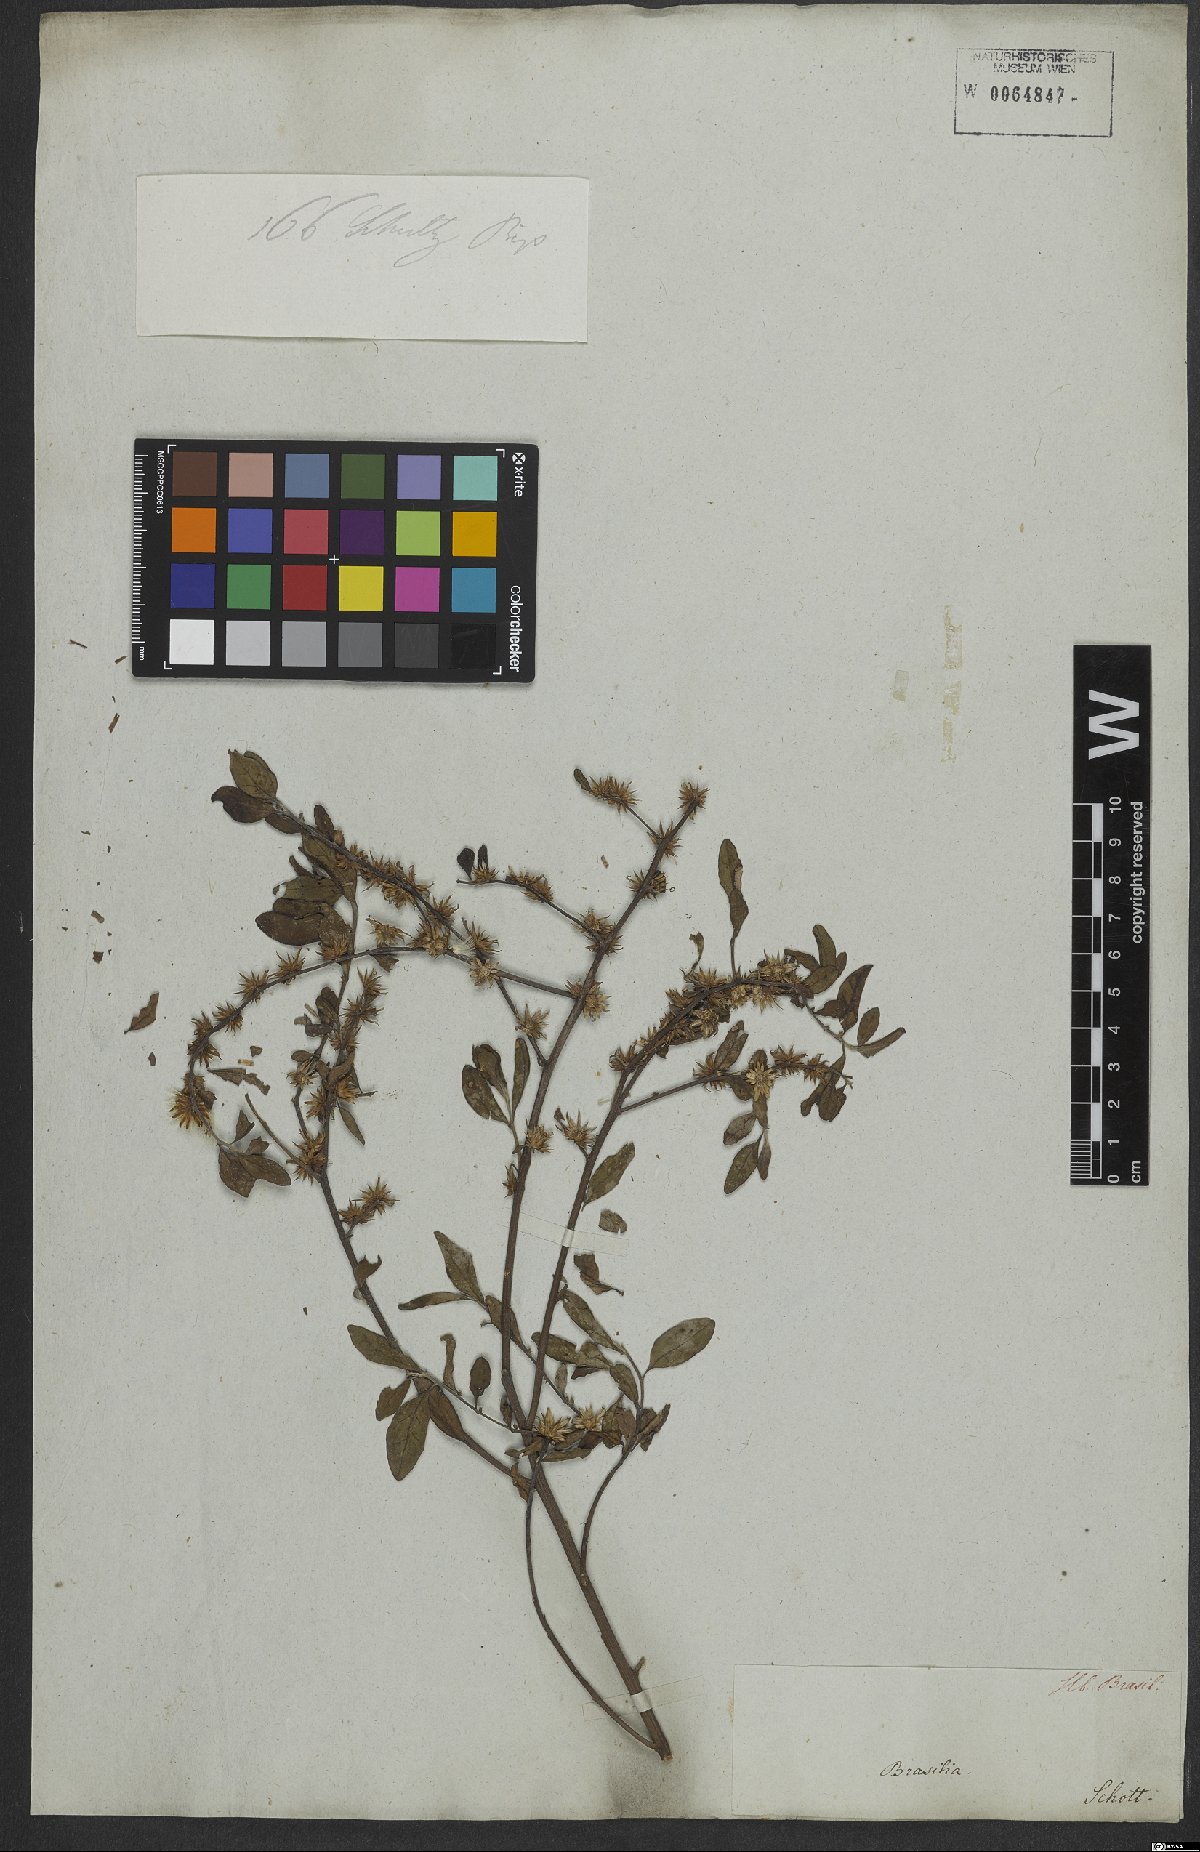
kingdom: Plantae
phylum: Tracheophyta
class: Magnoliopsida
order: Asterales
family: Asteraceae
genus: Lepidaploa
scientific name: Lepidaploa obtusifolia
